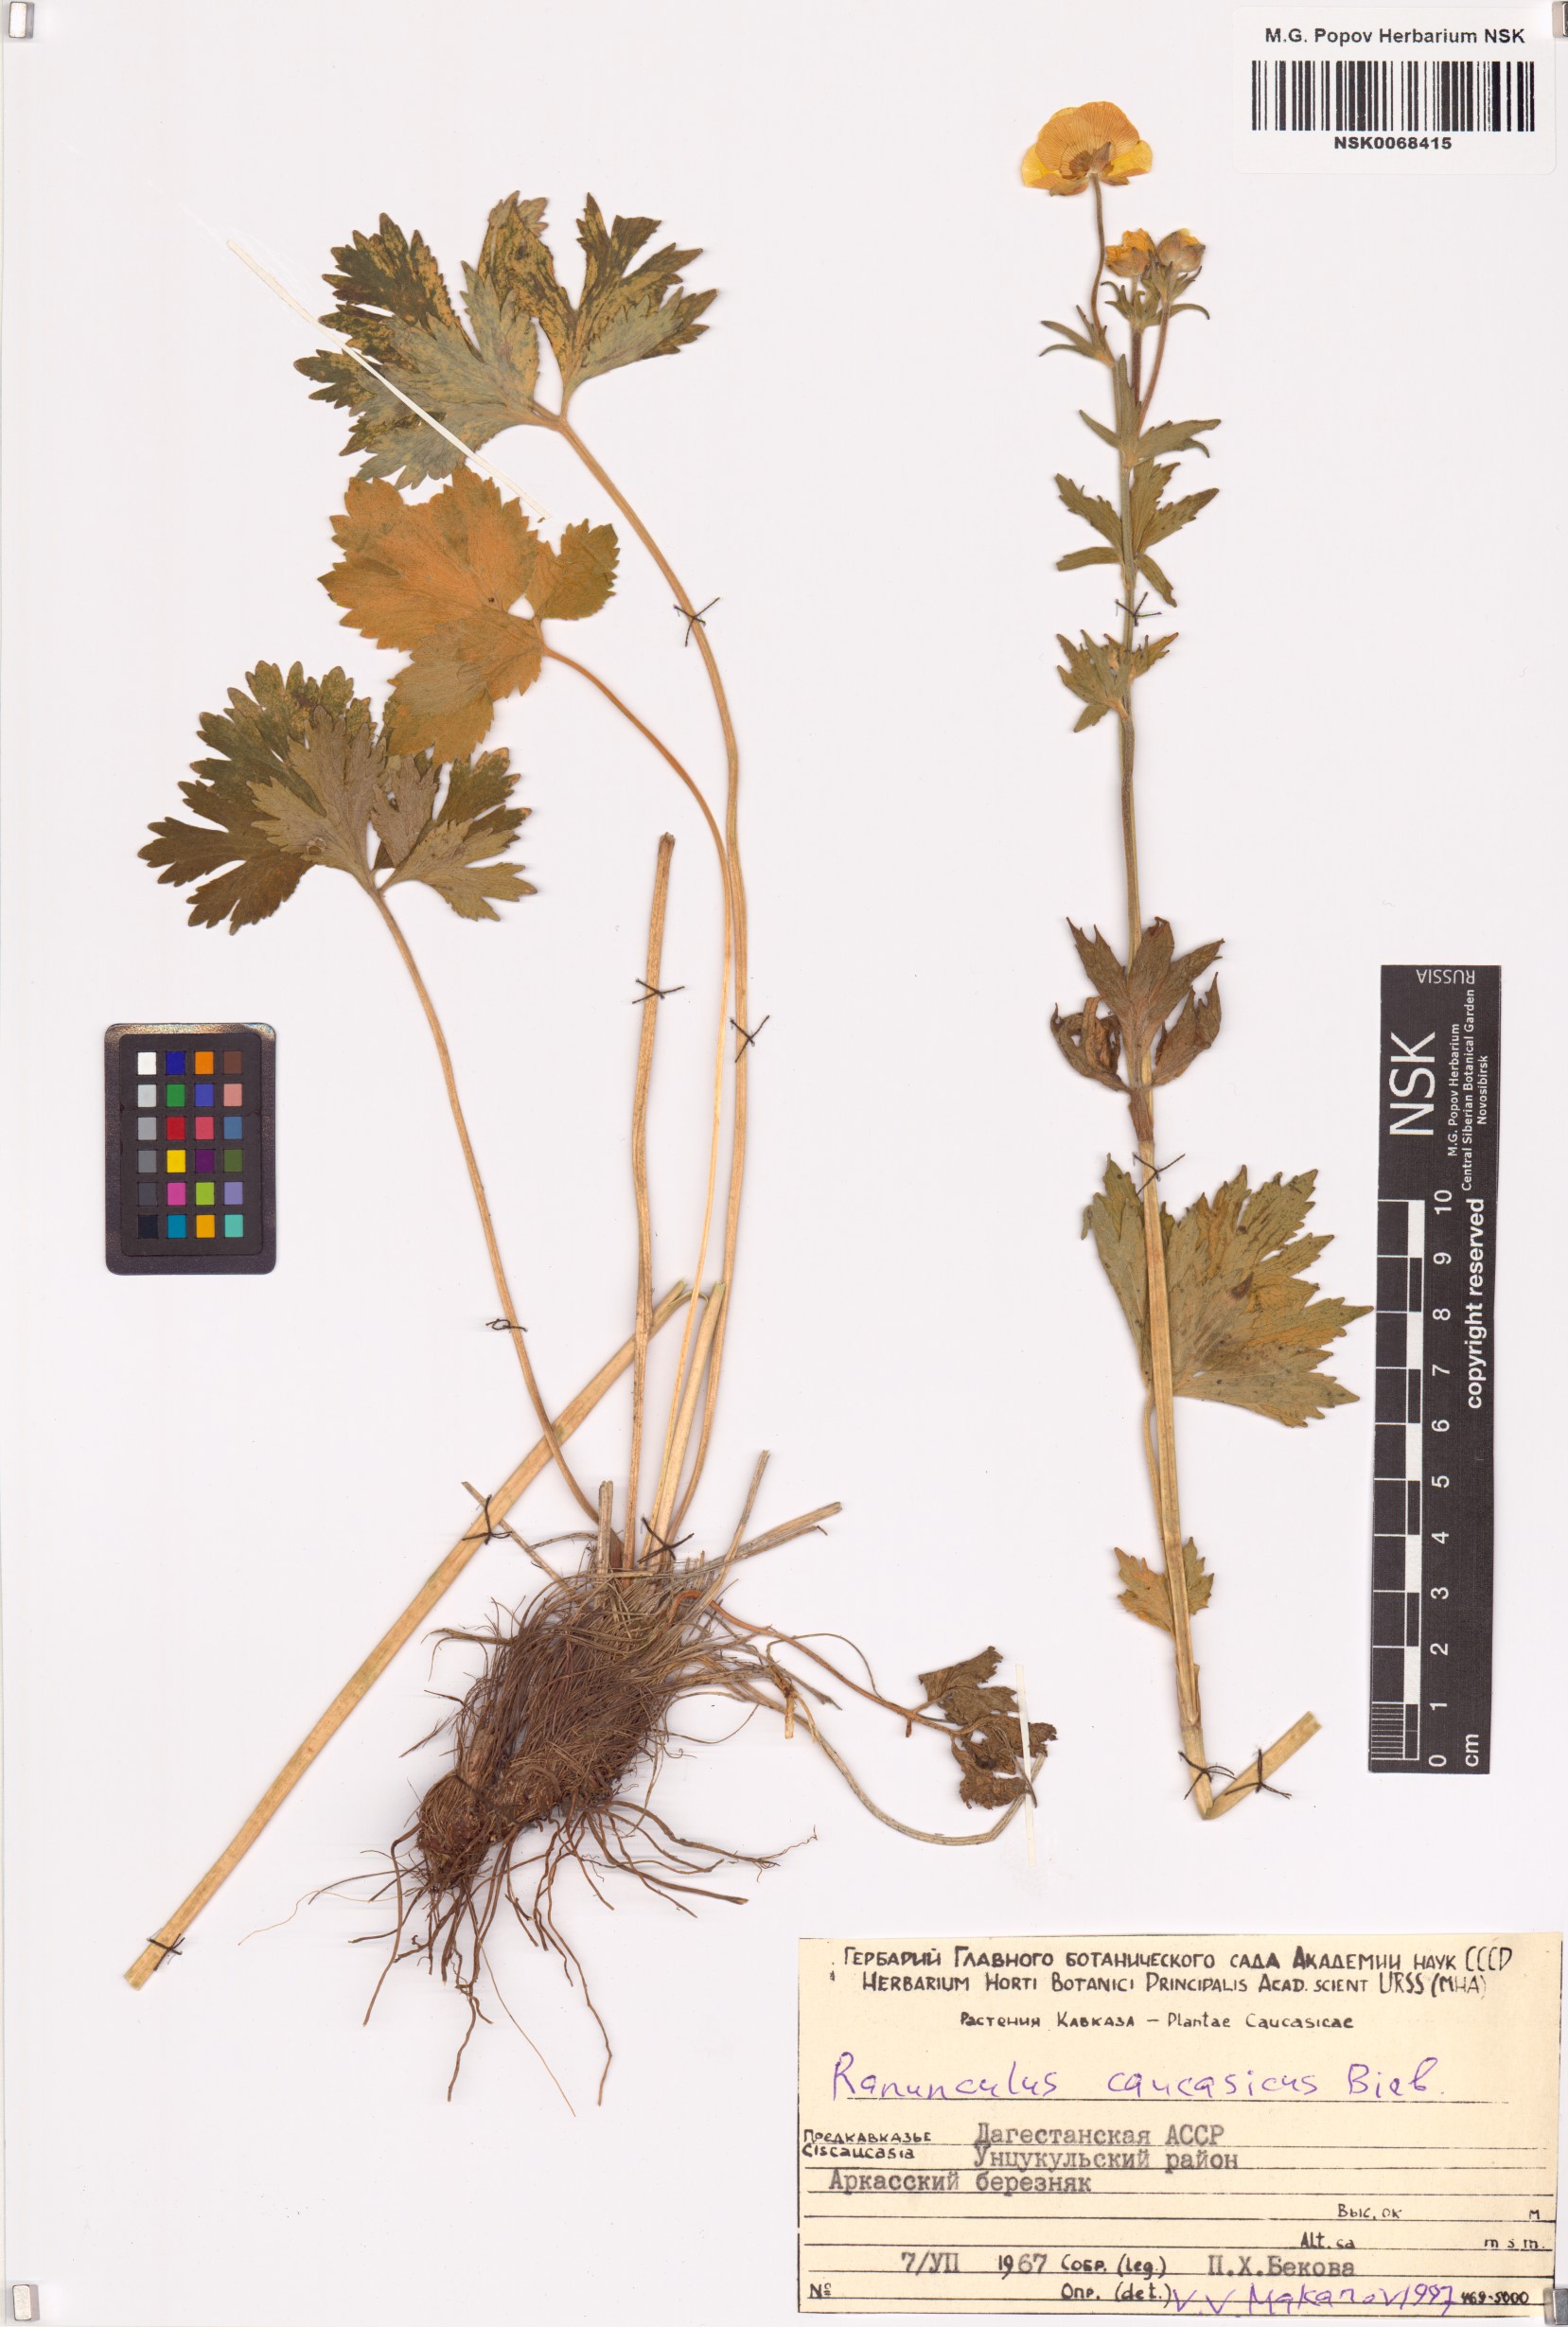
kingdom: Plantae
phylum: Tracheophyta
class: Magnoliopsida
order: Ranunculales
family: Ranunculaceae
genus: Ranunculus
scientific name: Ranunculus caucasicus
